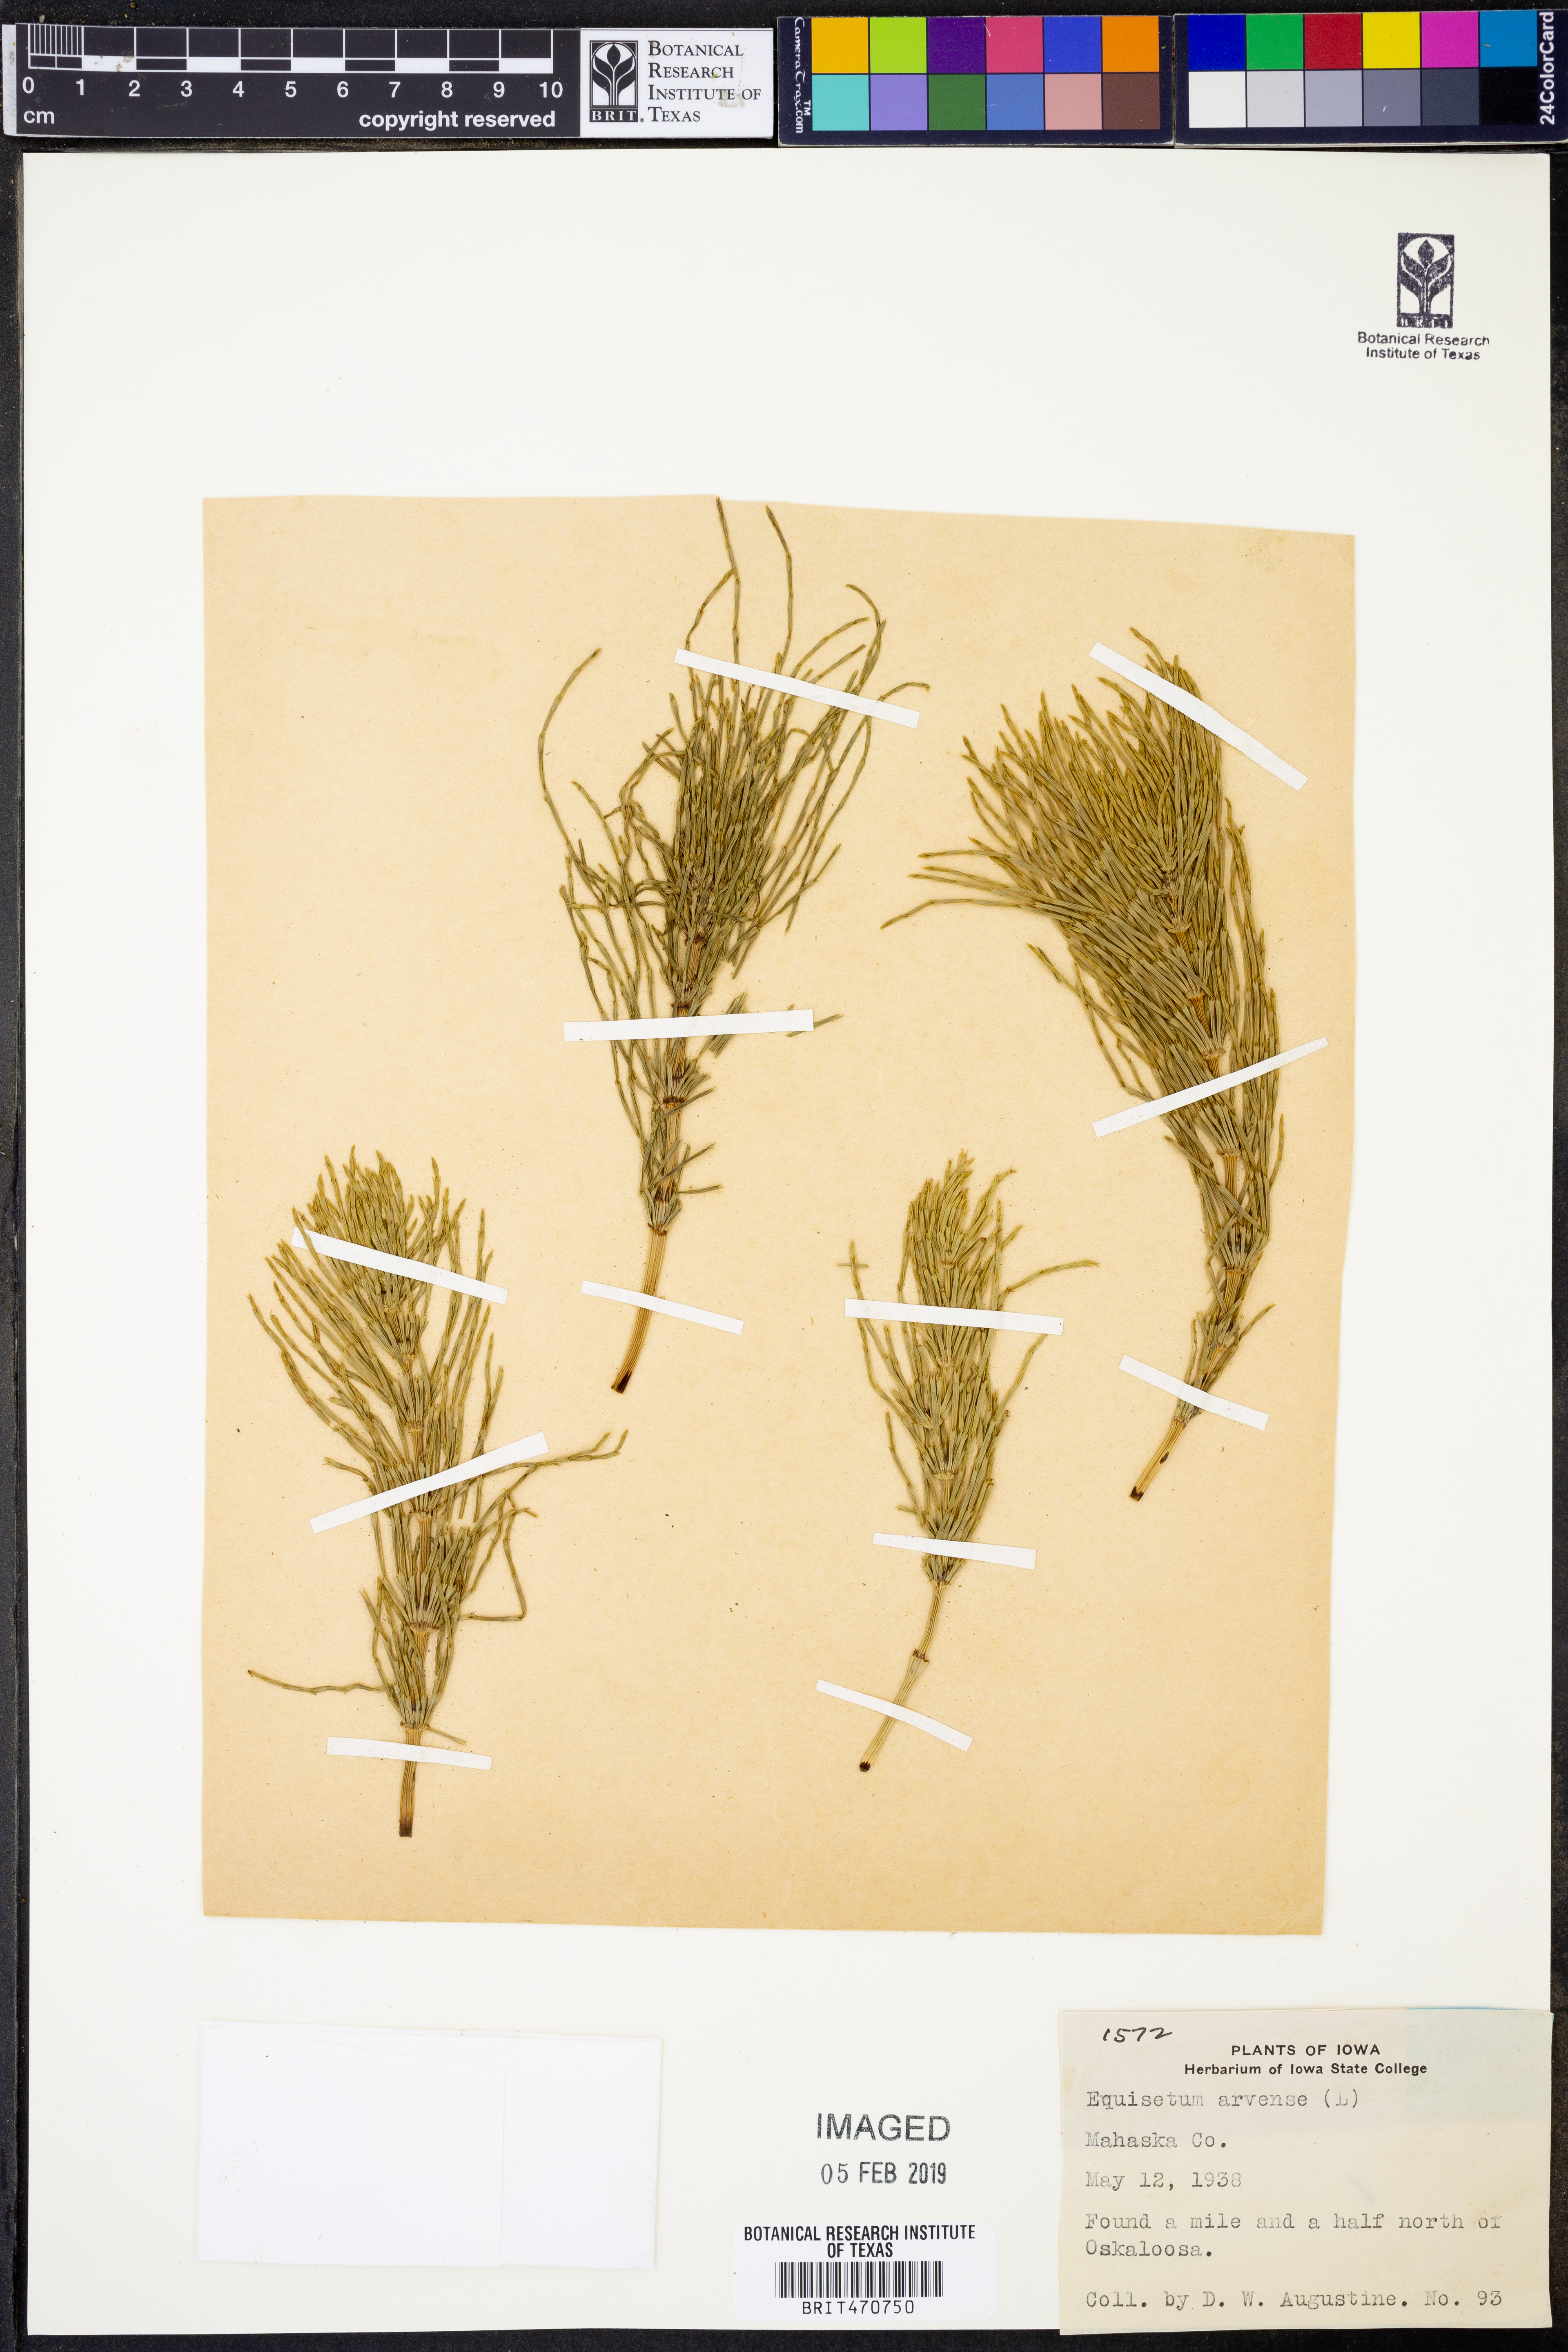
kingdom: Plantae
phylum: Tracheophyta
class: Polypodiopsida
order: Equisetales
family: Equisetaceae
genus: Equisetum
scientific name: Equisetum arvense
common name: Field horsetail
